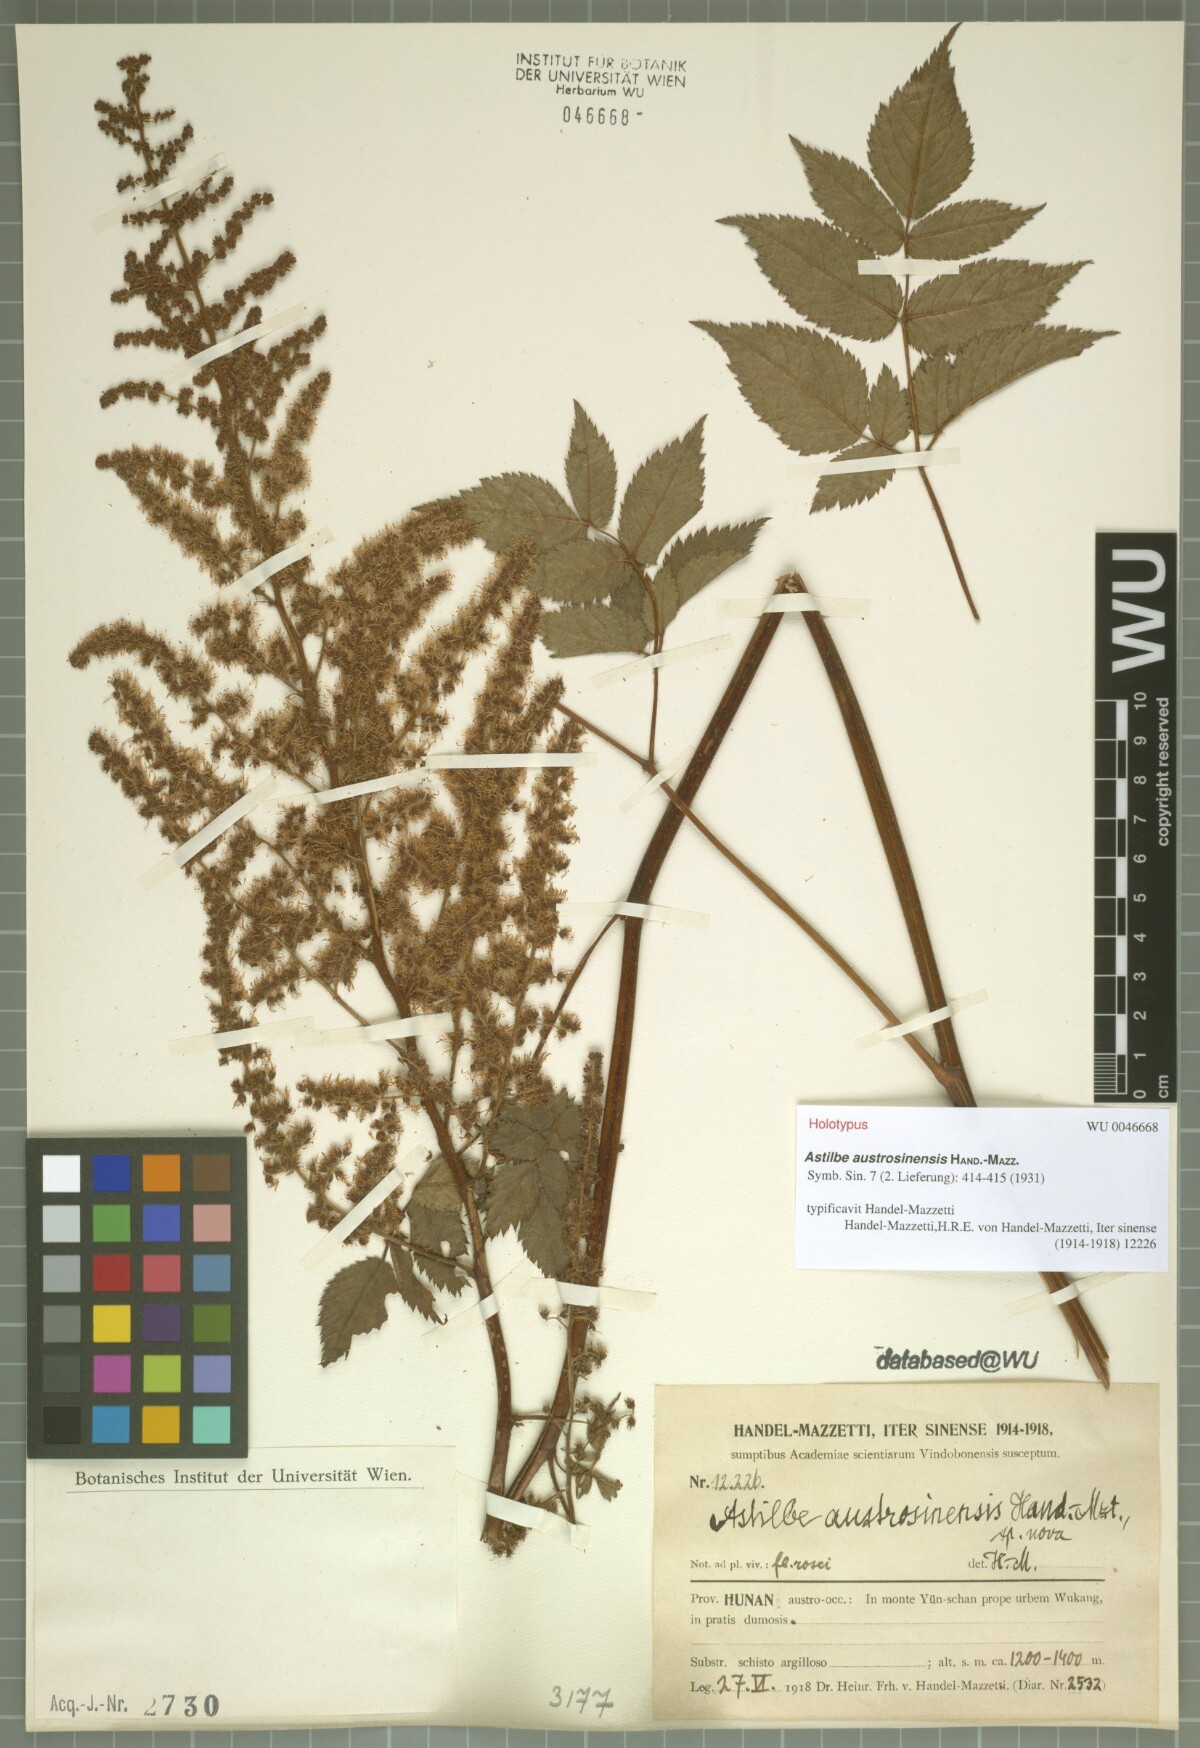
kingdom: Plantae
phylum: Tracheophyta
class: Magnoliopsida
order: Saxifragales
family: Saxifragaceae
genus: Astilbe
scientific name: Astilbe grandis
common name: Korean astilbe
